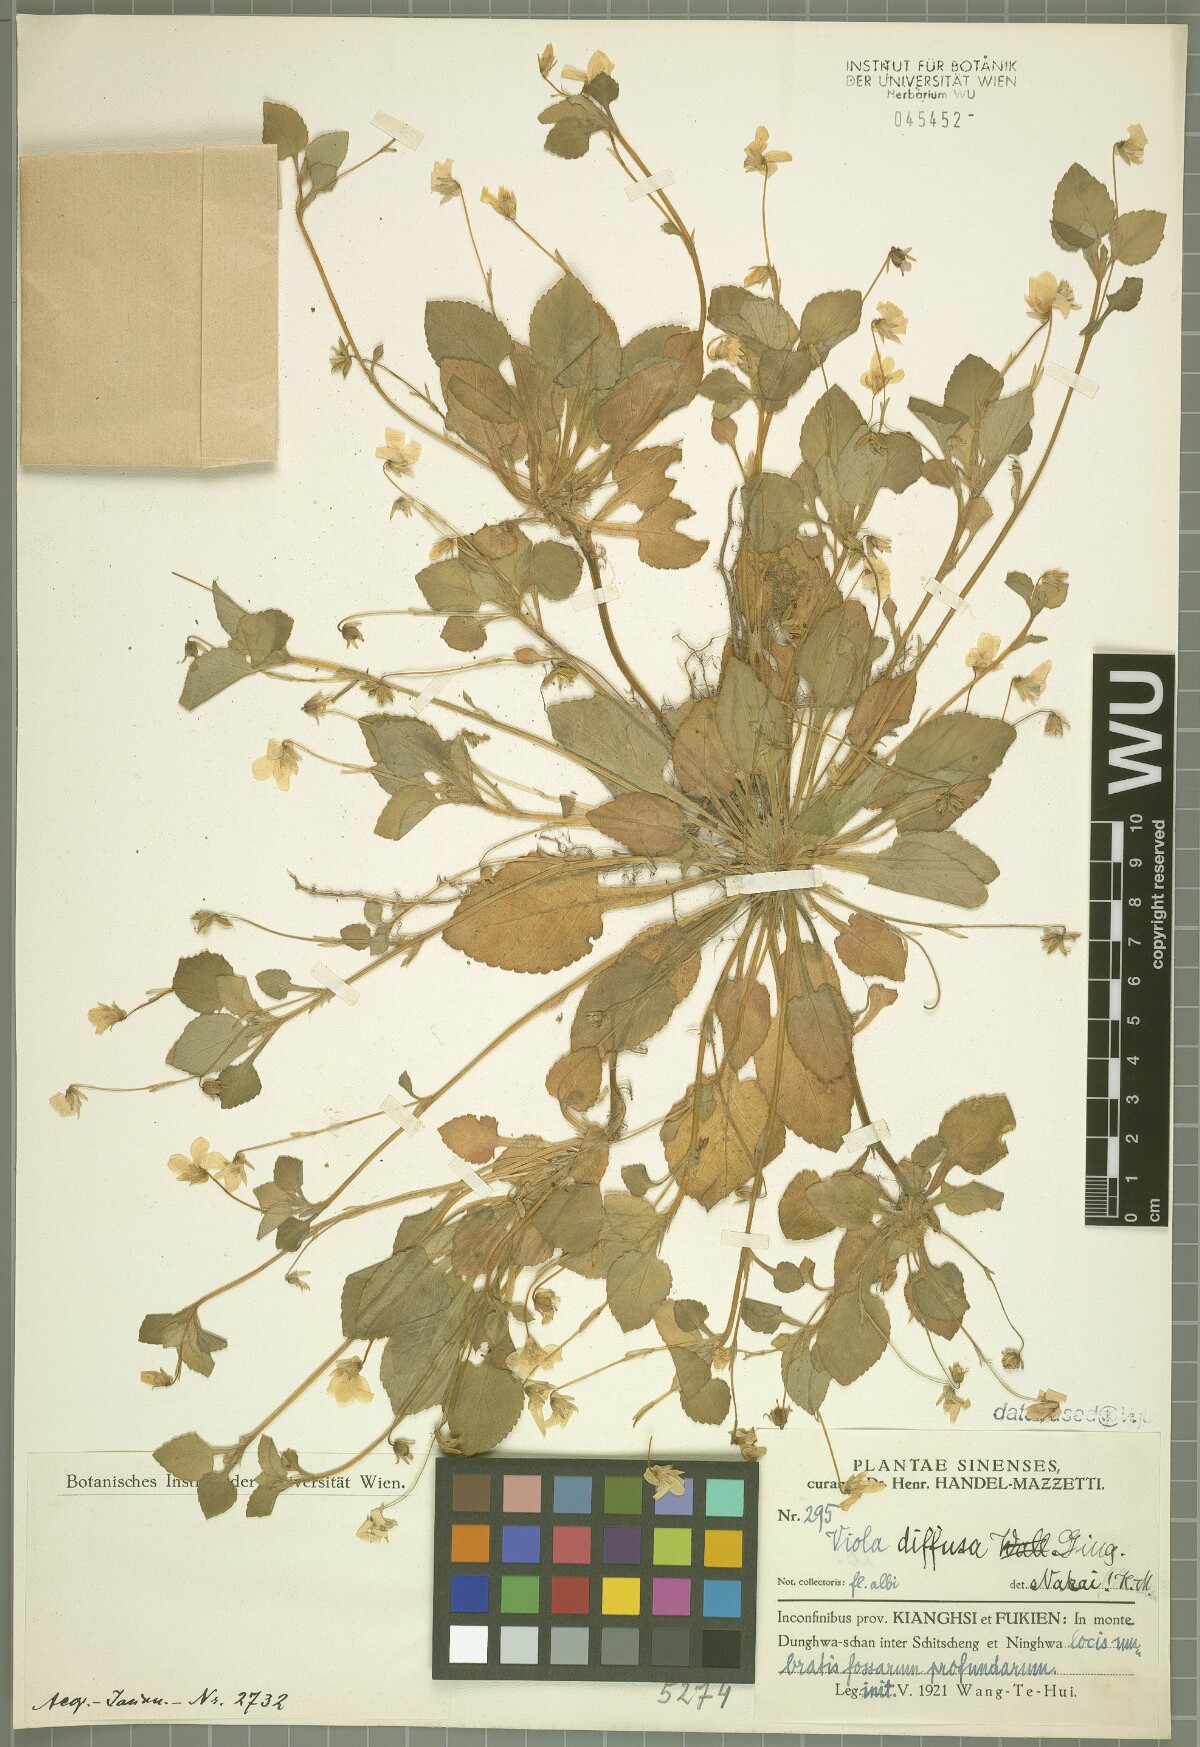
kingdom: Plantae
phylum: Tracheophyta
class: Magnoliopsida
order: Malpighiales
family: Violaceae
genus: Viola
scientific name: Viola diffusa
